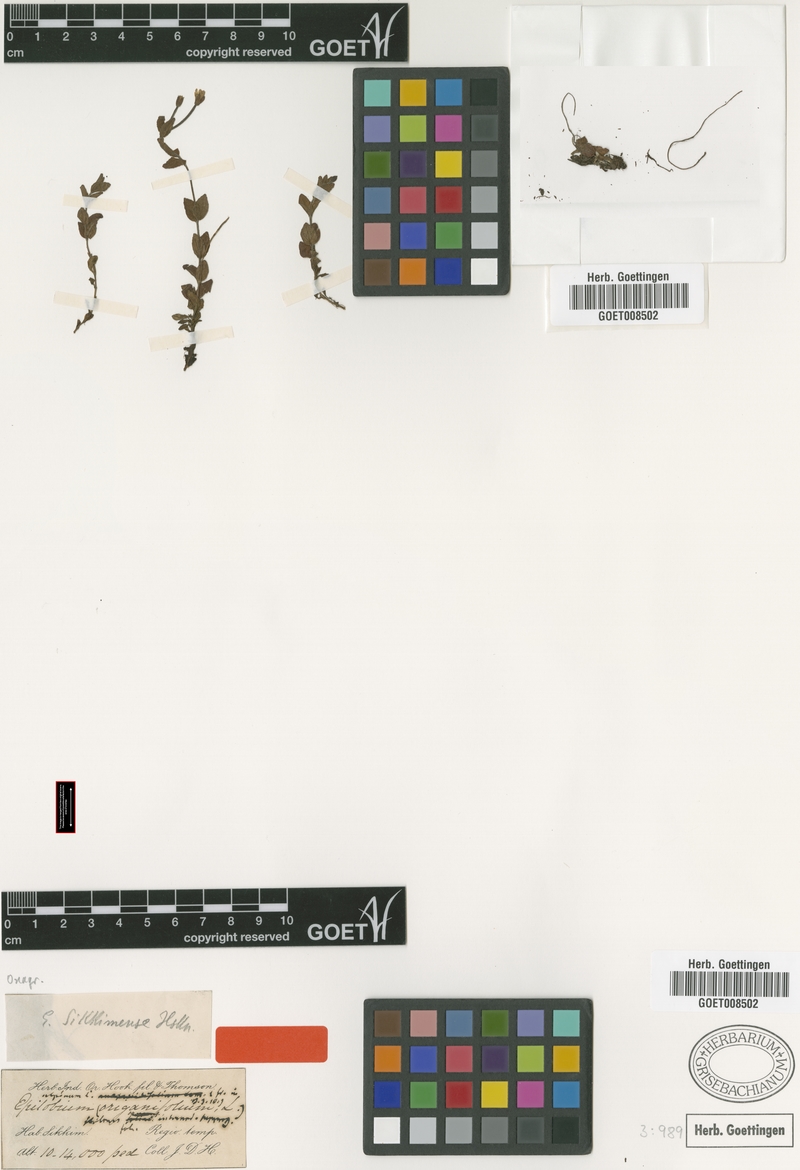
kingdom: Plantae
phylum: Tracheophyta
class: Magnoliopsida
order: Myrtales
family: Onagraceae
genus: Epilobium
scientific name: Epilobium sikkimense
